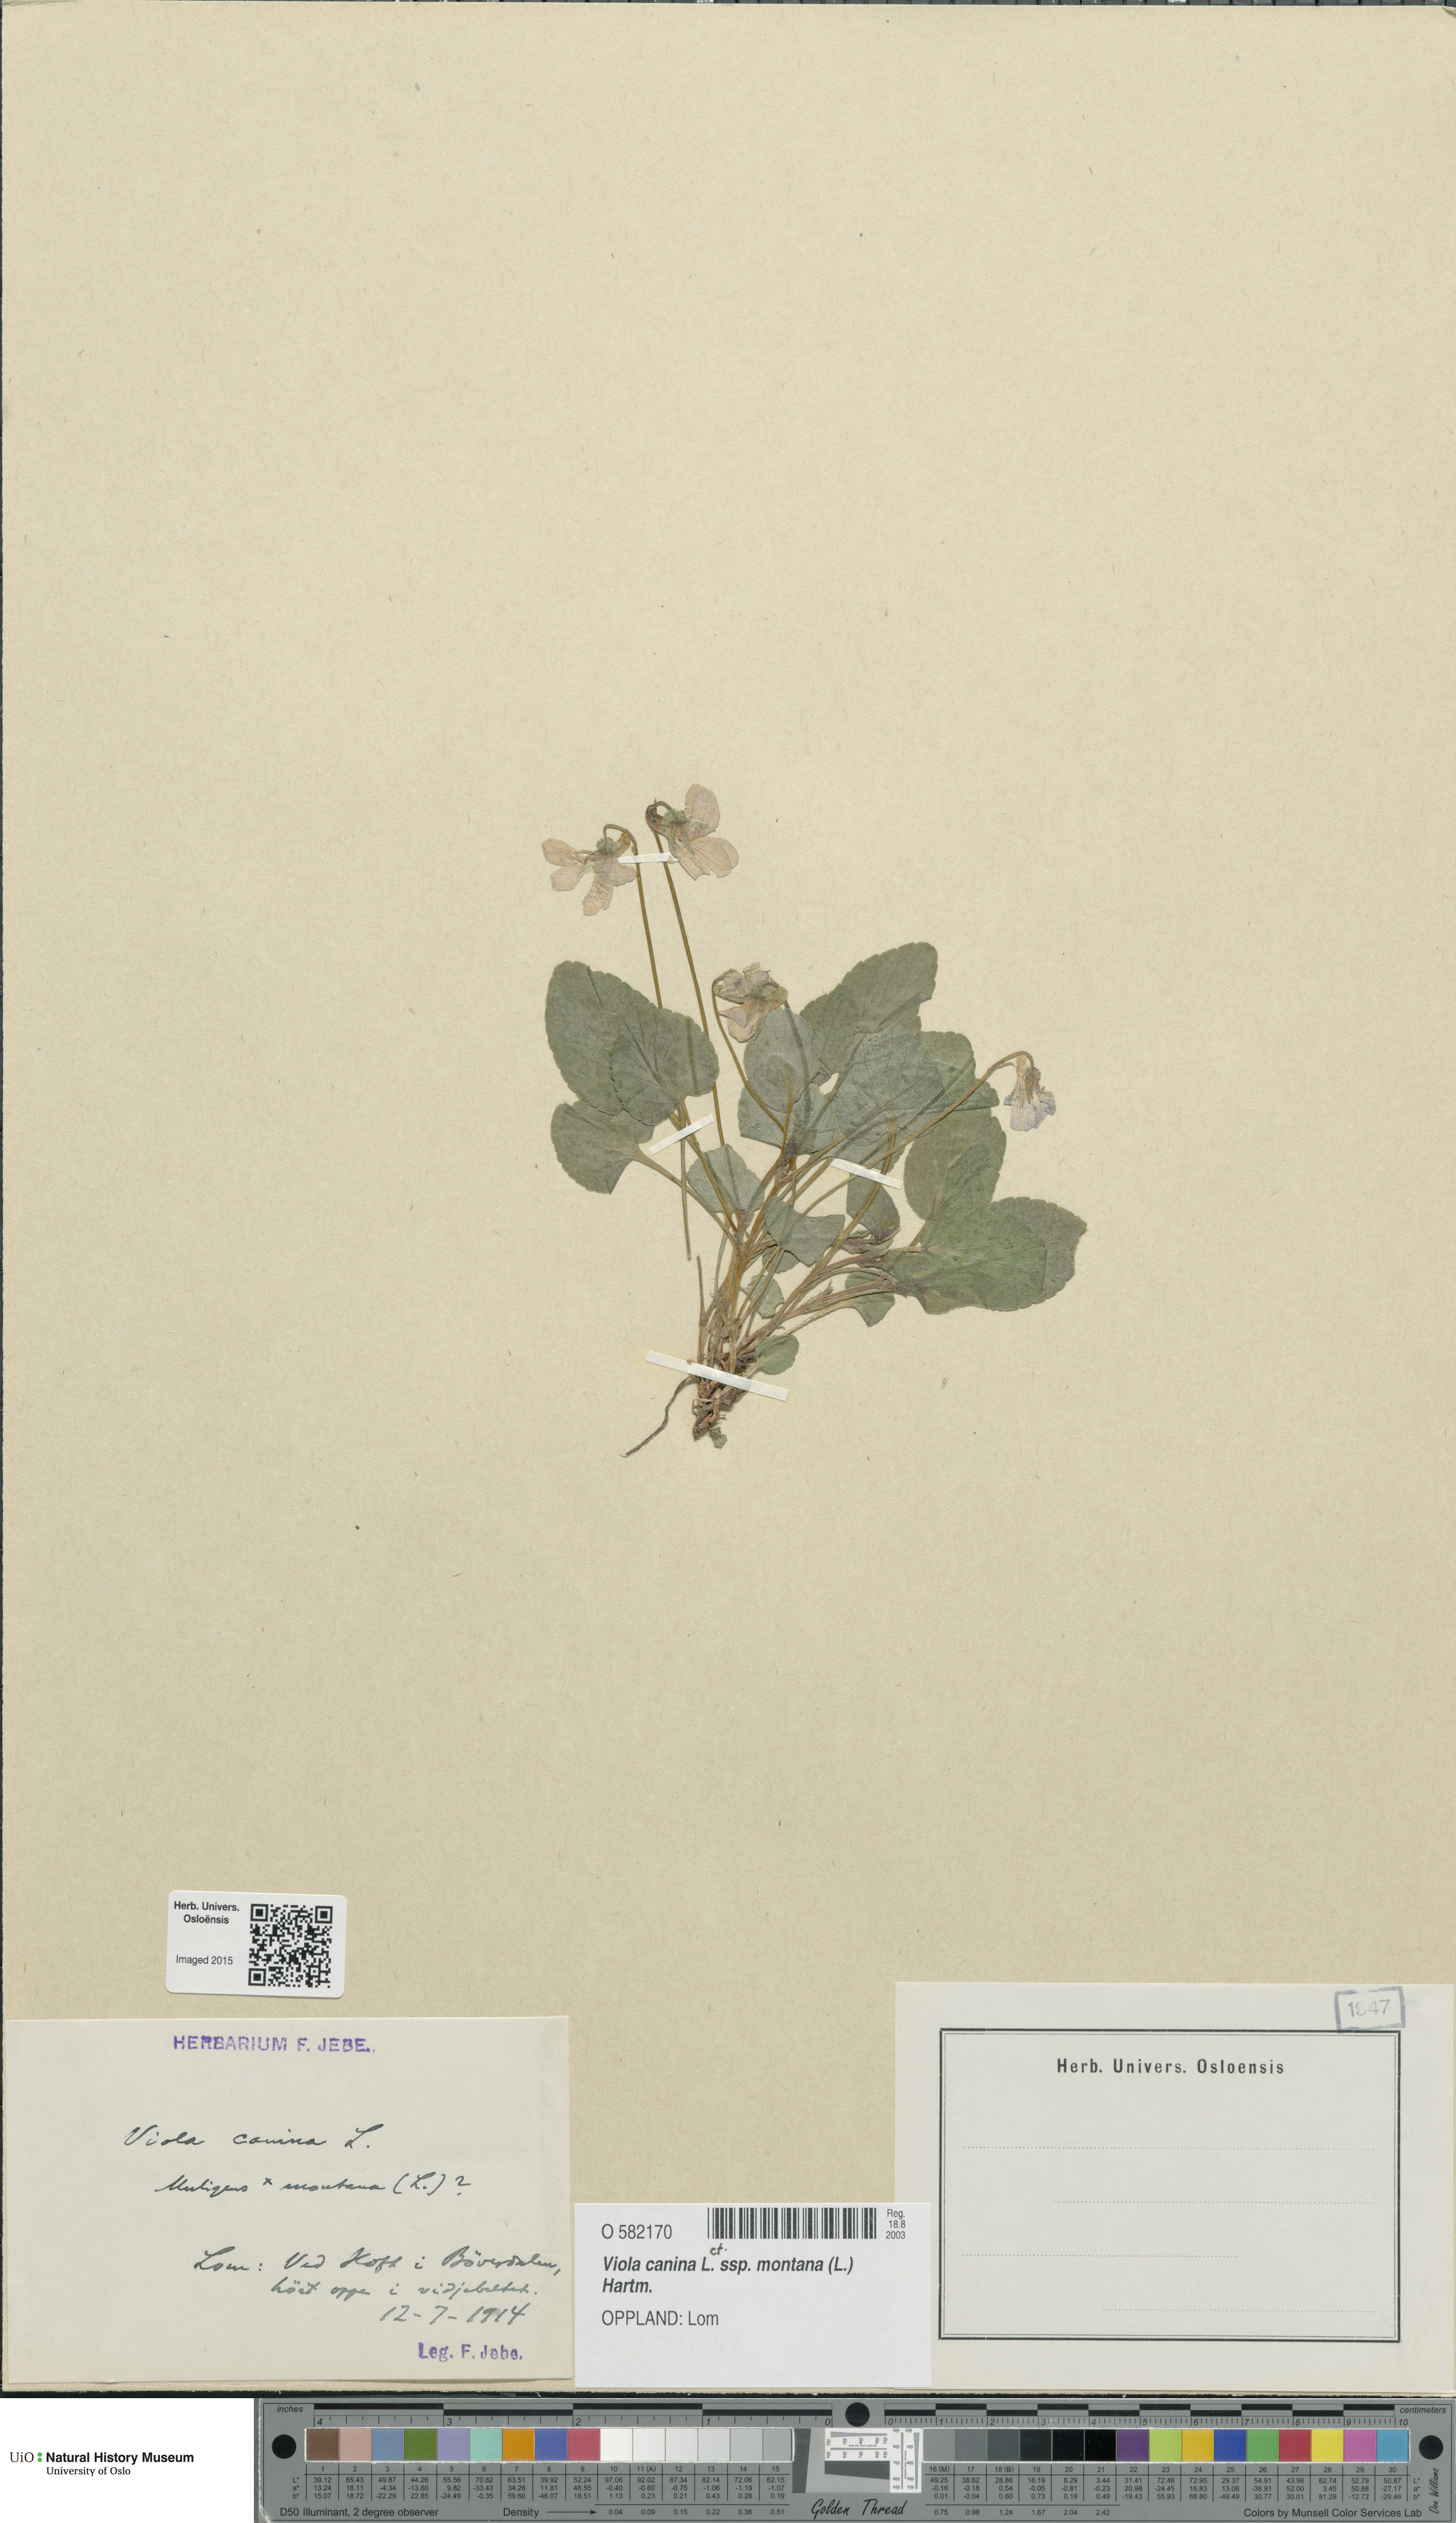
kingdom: Plantae
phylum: Tracheophyta
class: Magnoliopsida
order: Malpighiales
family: Violaceae
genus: Viola
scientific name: Viola ruppii
